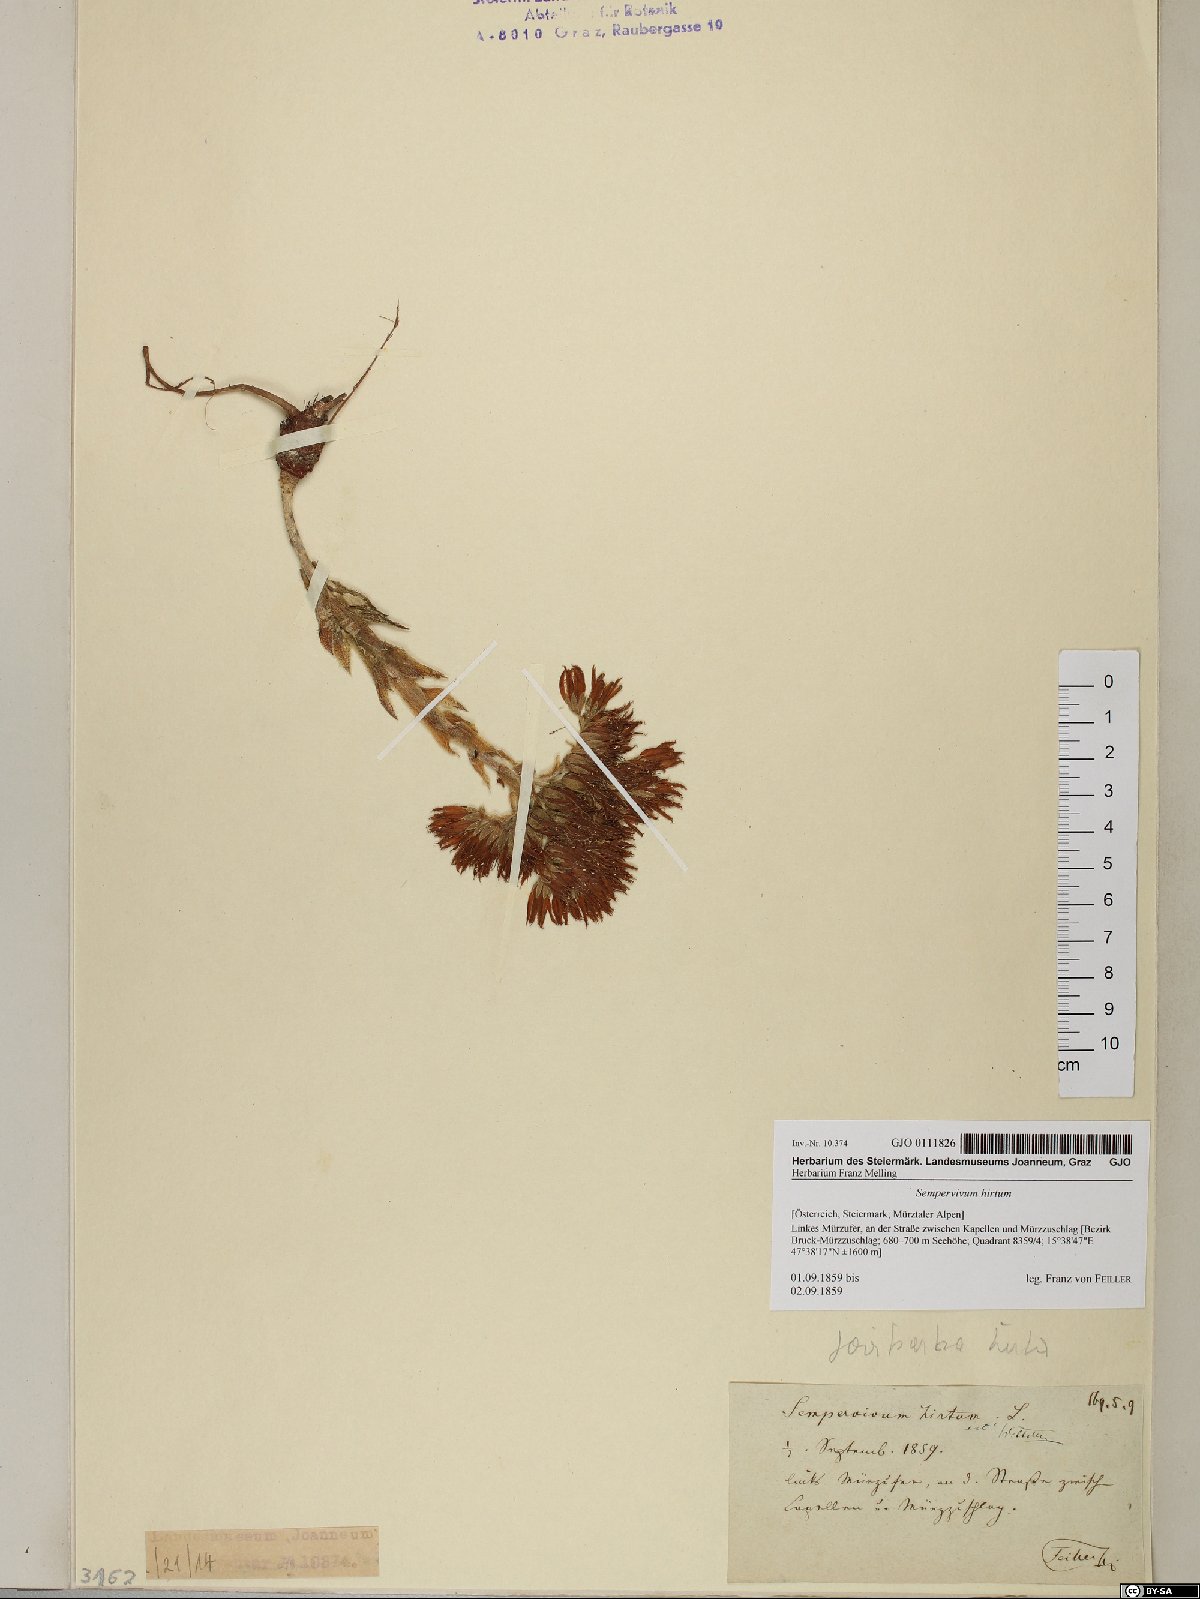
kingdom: Plantae
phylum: Tracheophyta
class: Magnoliopsida
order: Saxifragales
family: Crassulaceae
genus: Sempervivum
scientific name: Sempervivum globiferum
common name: Rolling hen-and-chicks
